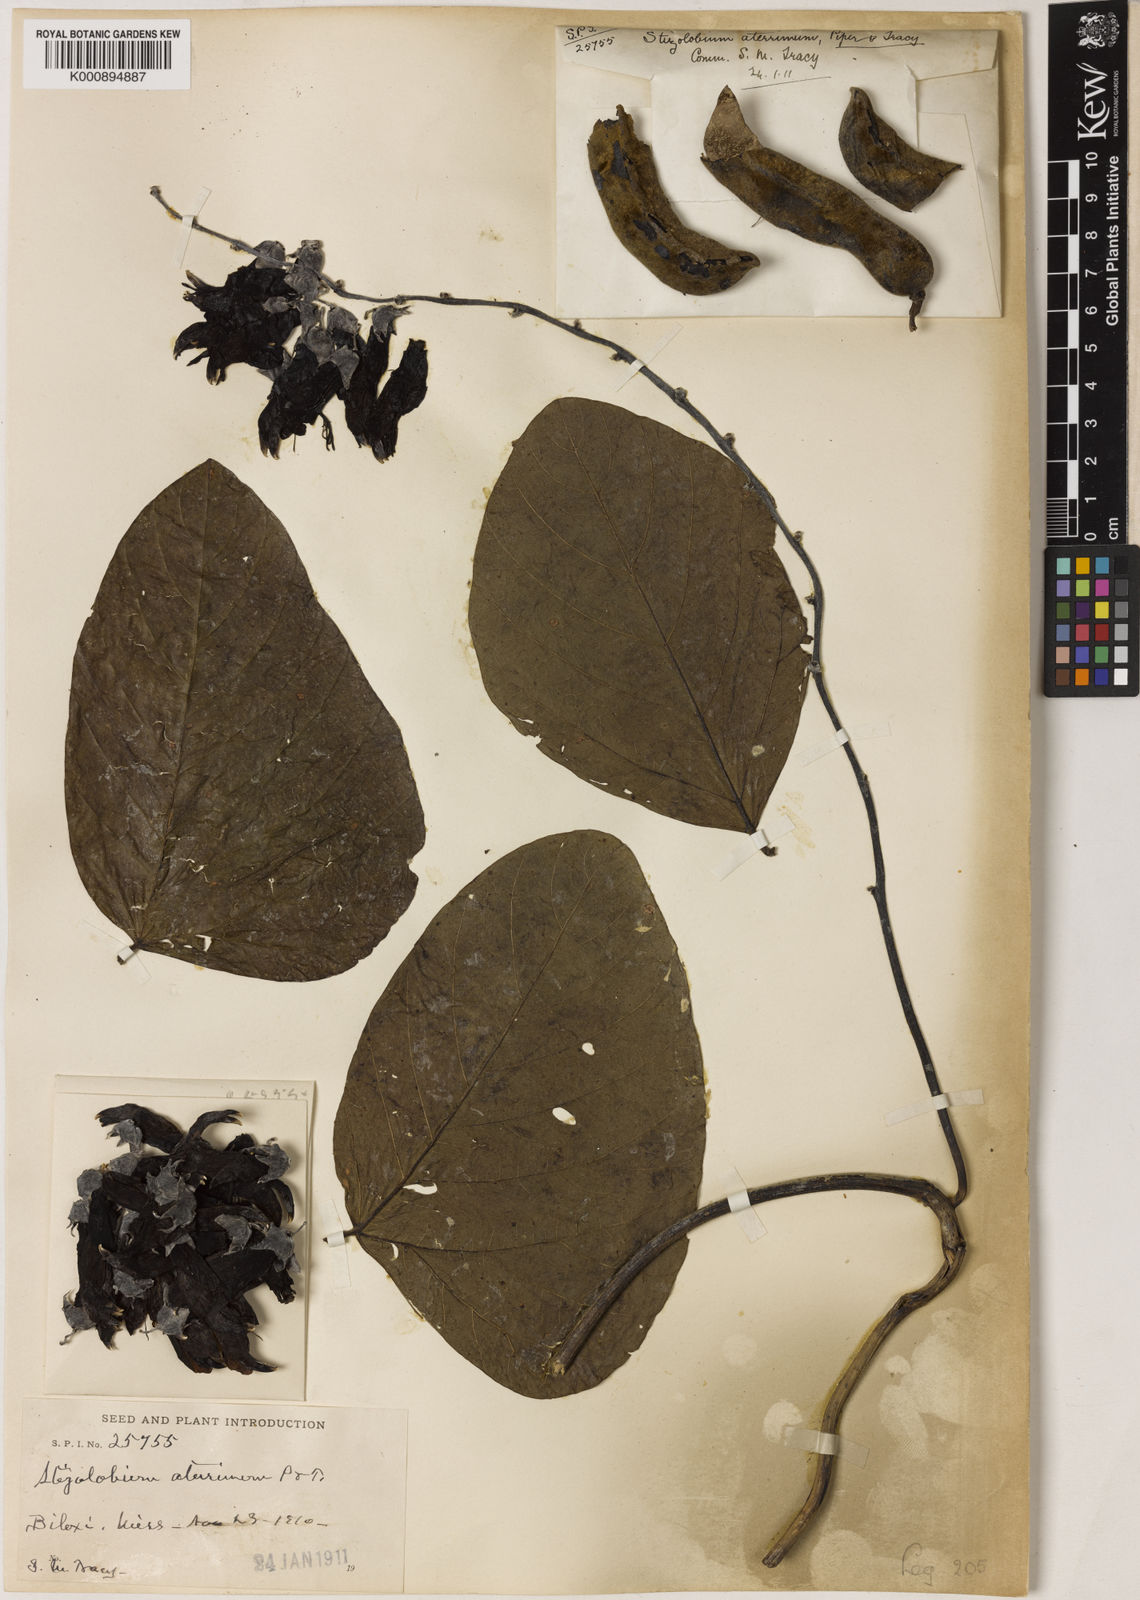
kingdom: Plantae
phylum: Tracheophyta
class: Magnoliopsida
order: Fabales
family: Fabaceae
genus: Mucuna
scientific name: Mucuna pruriens
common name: Cow-itch
